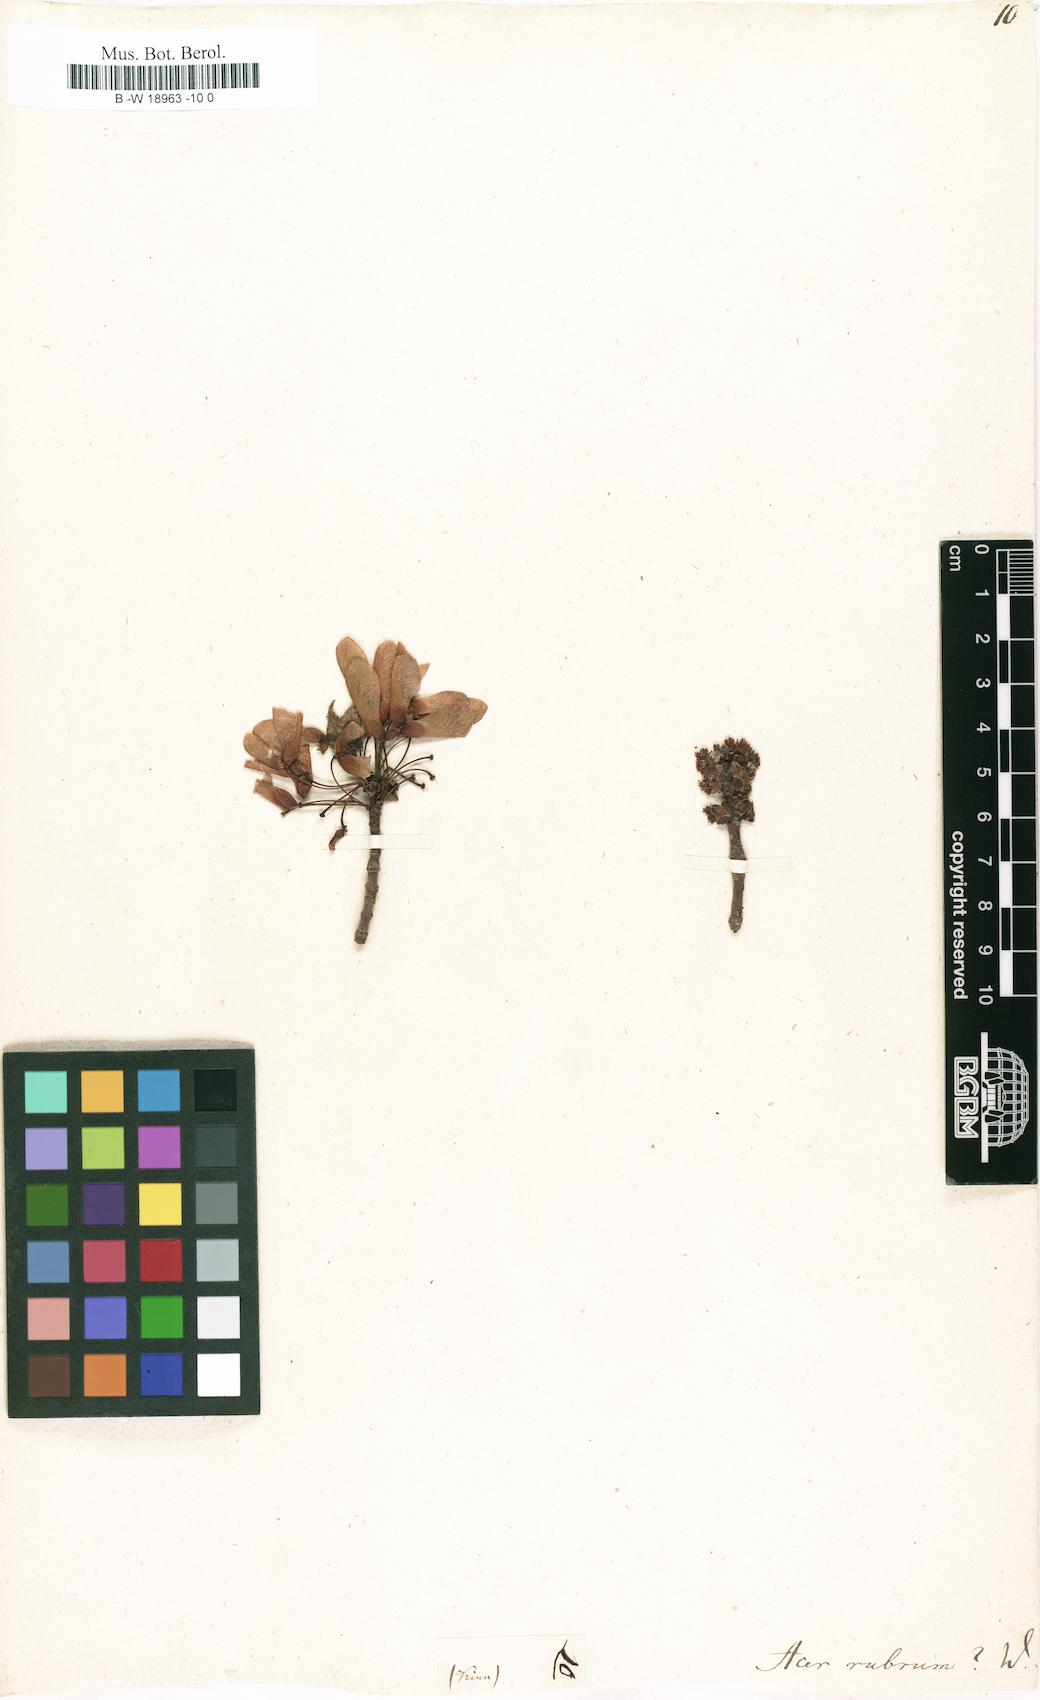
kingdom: Plantae
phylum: Tracheophyta
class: Magnoliopsida
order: Sapindales
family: Sapindaceae
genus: Acer
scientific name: Acer rubrum
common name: Red maple
